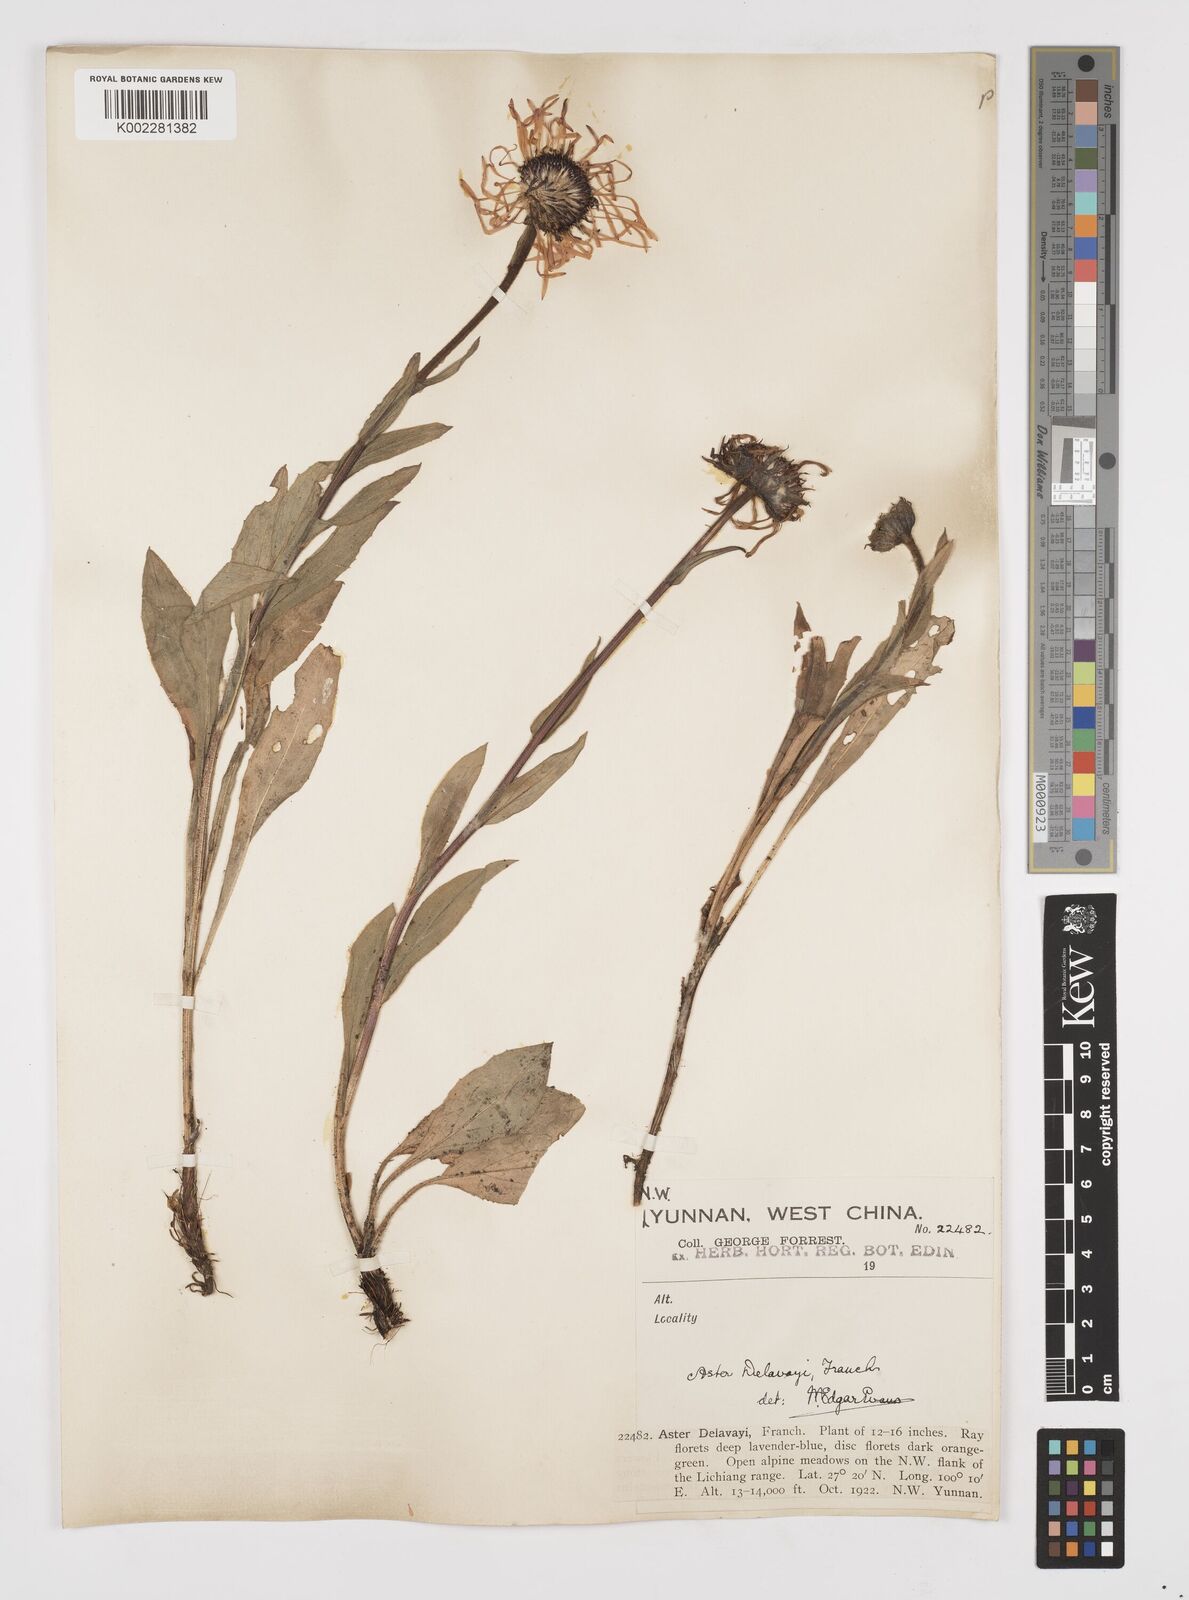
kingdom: Plantae
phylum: Tracheophyta
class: Magnoliopsida
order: Asterales
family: Asteraceae
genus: Tibetiodes
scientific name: Tibetiodes diplostephioides
